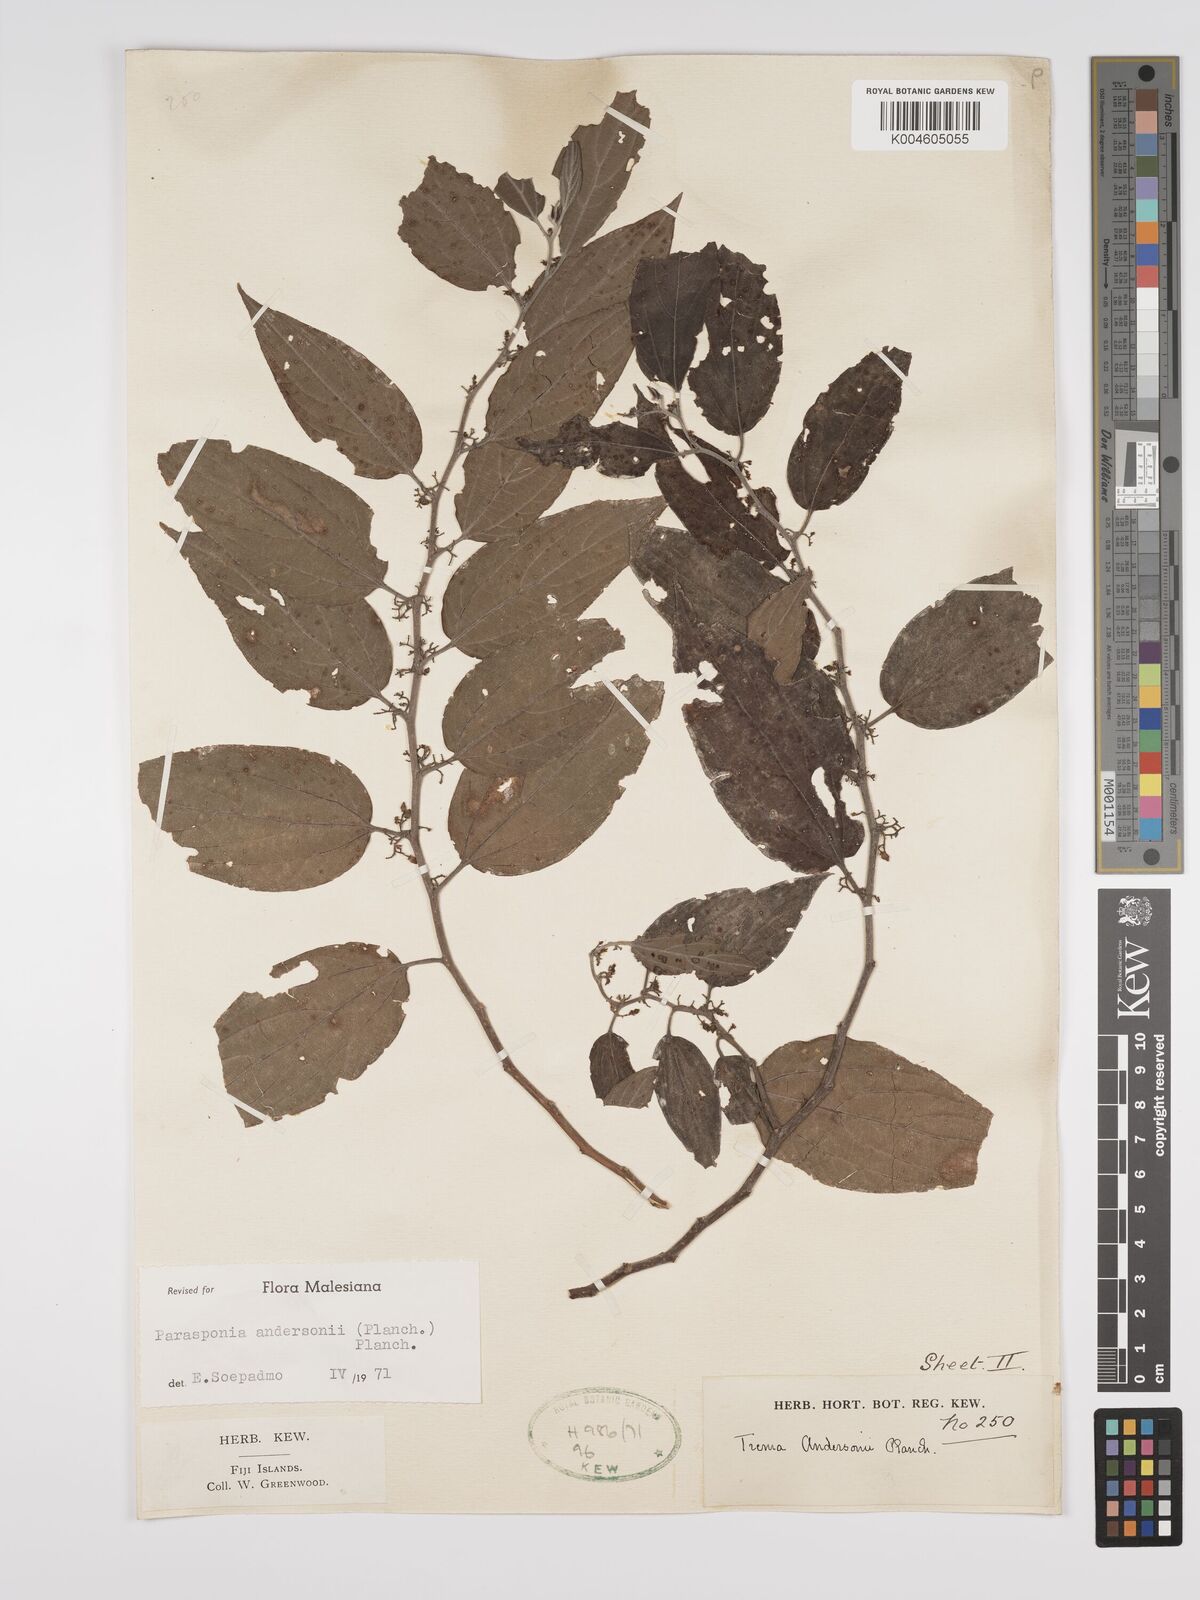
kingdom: Plantae
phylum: Tracheophyta
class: Magnoliopsida
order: Rosales
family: Cannabaceae
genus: Trema
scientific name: Trema andersonii
